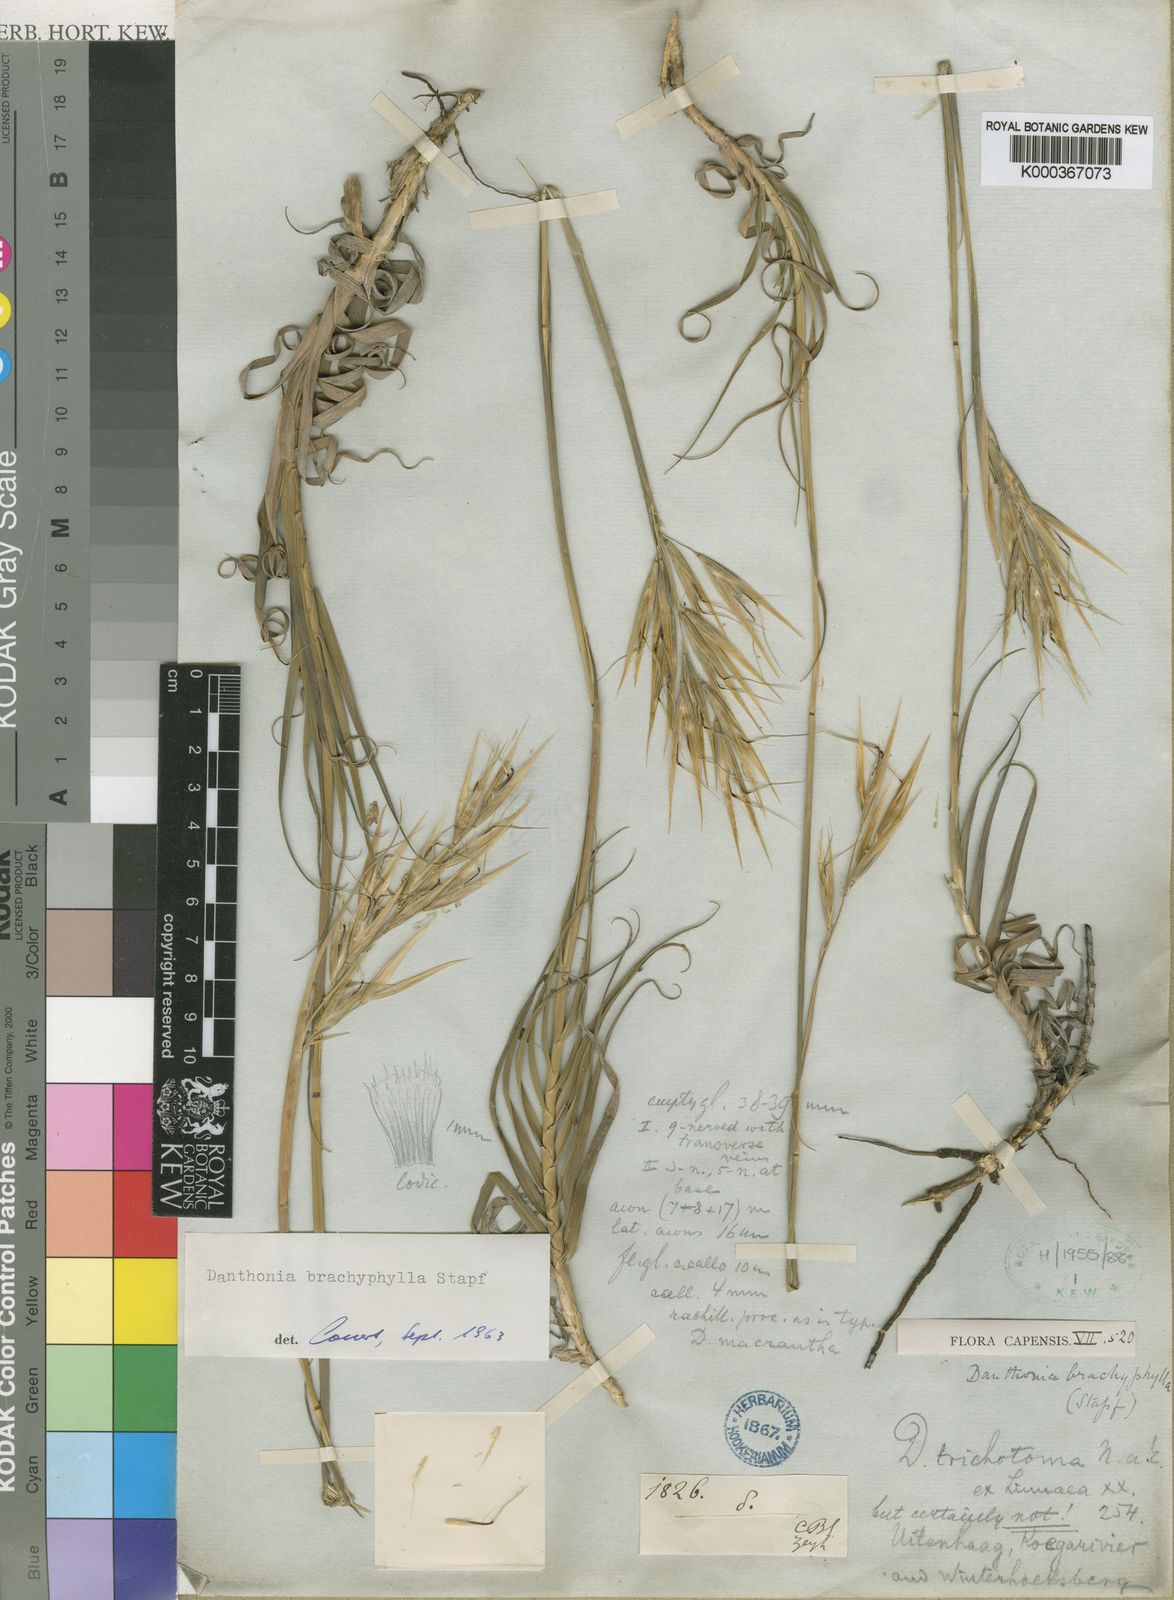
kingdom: Plantae
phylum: Tracheophyta
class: Liliopsida
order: Poales
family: Poaceae
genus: Pseudopentameris
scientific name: Pseudopentameris brachyphylla
